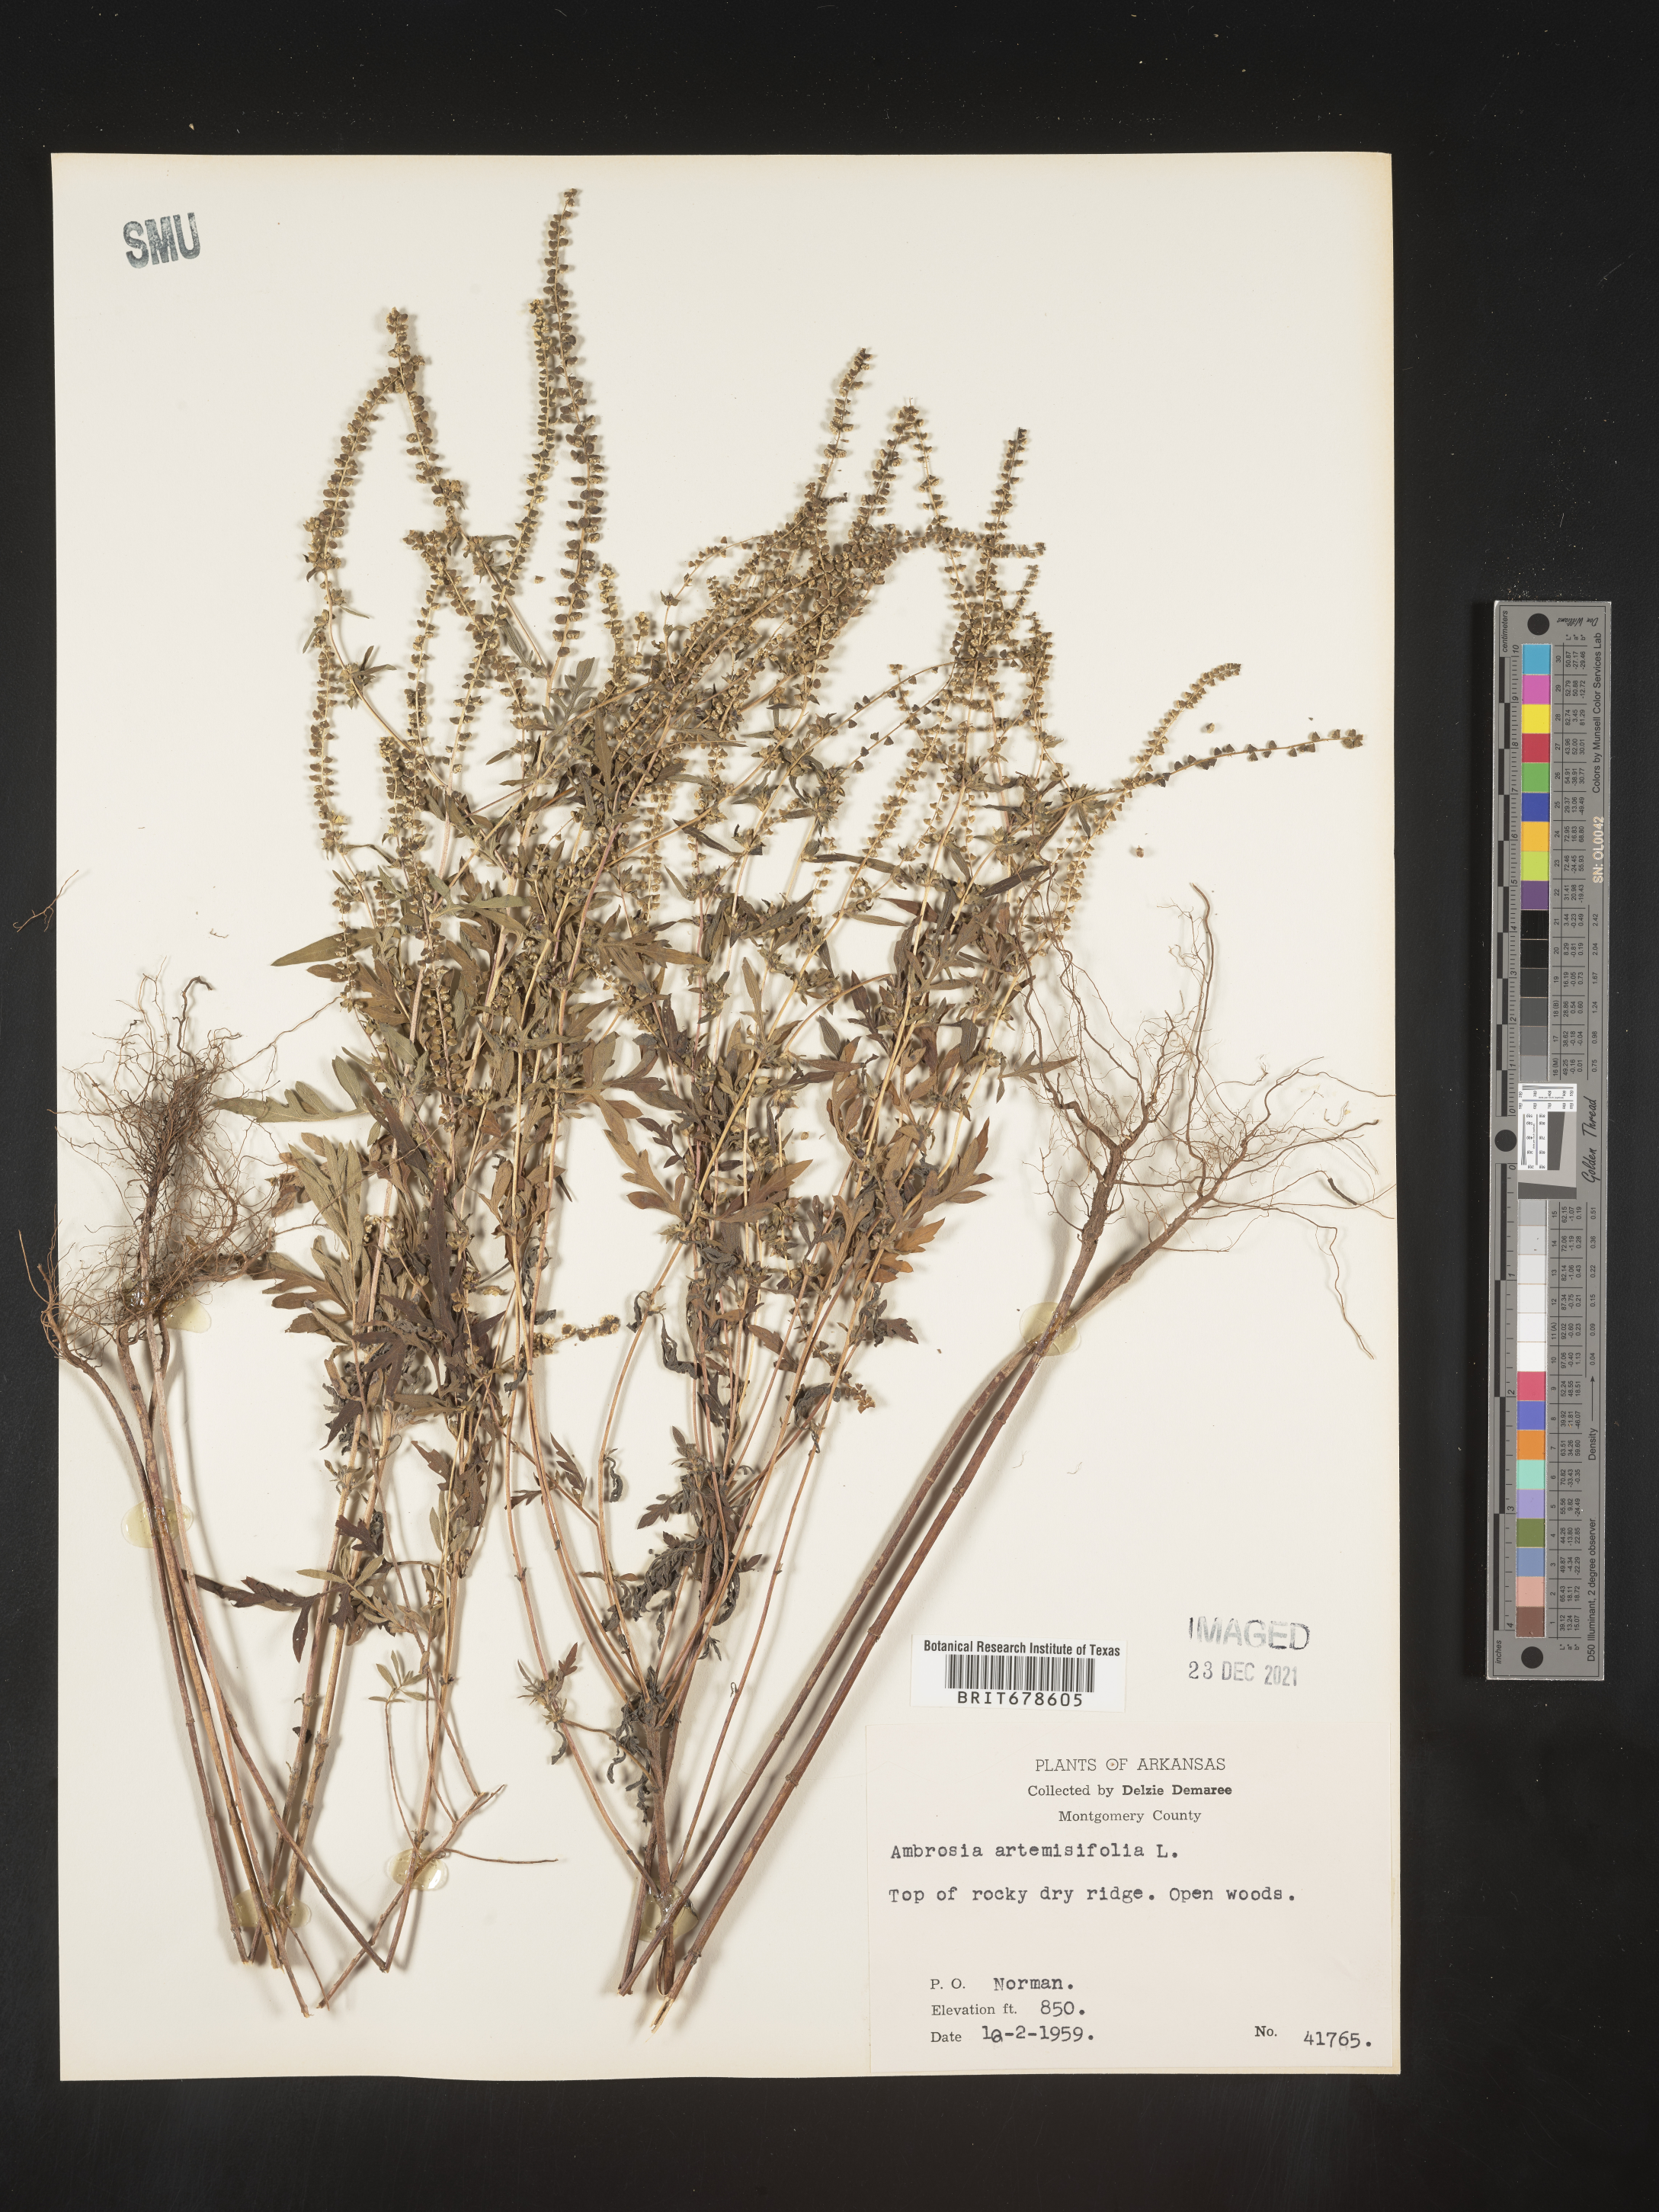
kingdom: Plantae
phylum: Tracheophyta
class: Magnoliopsida
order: Asterales
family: Asteraceae
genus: Ambrosia
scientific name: Ambrosia polystachya
